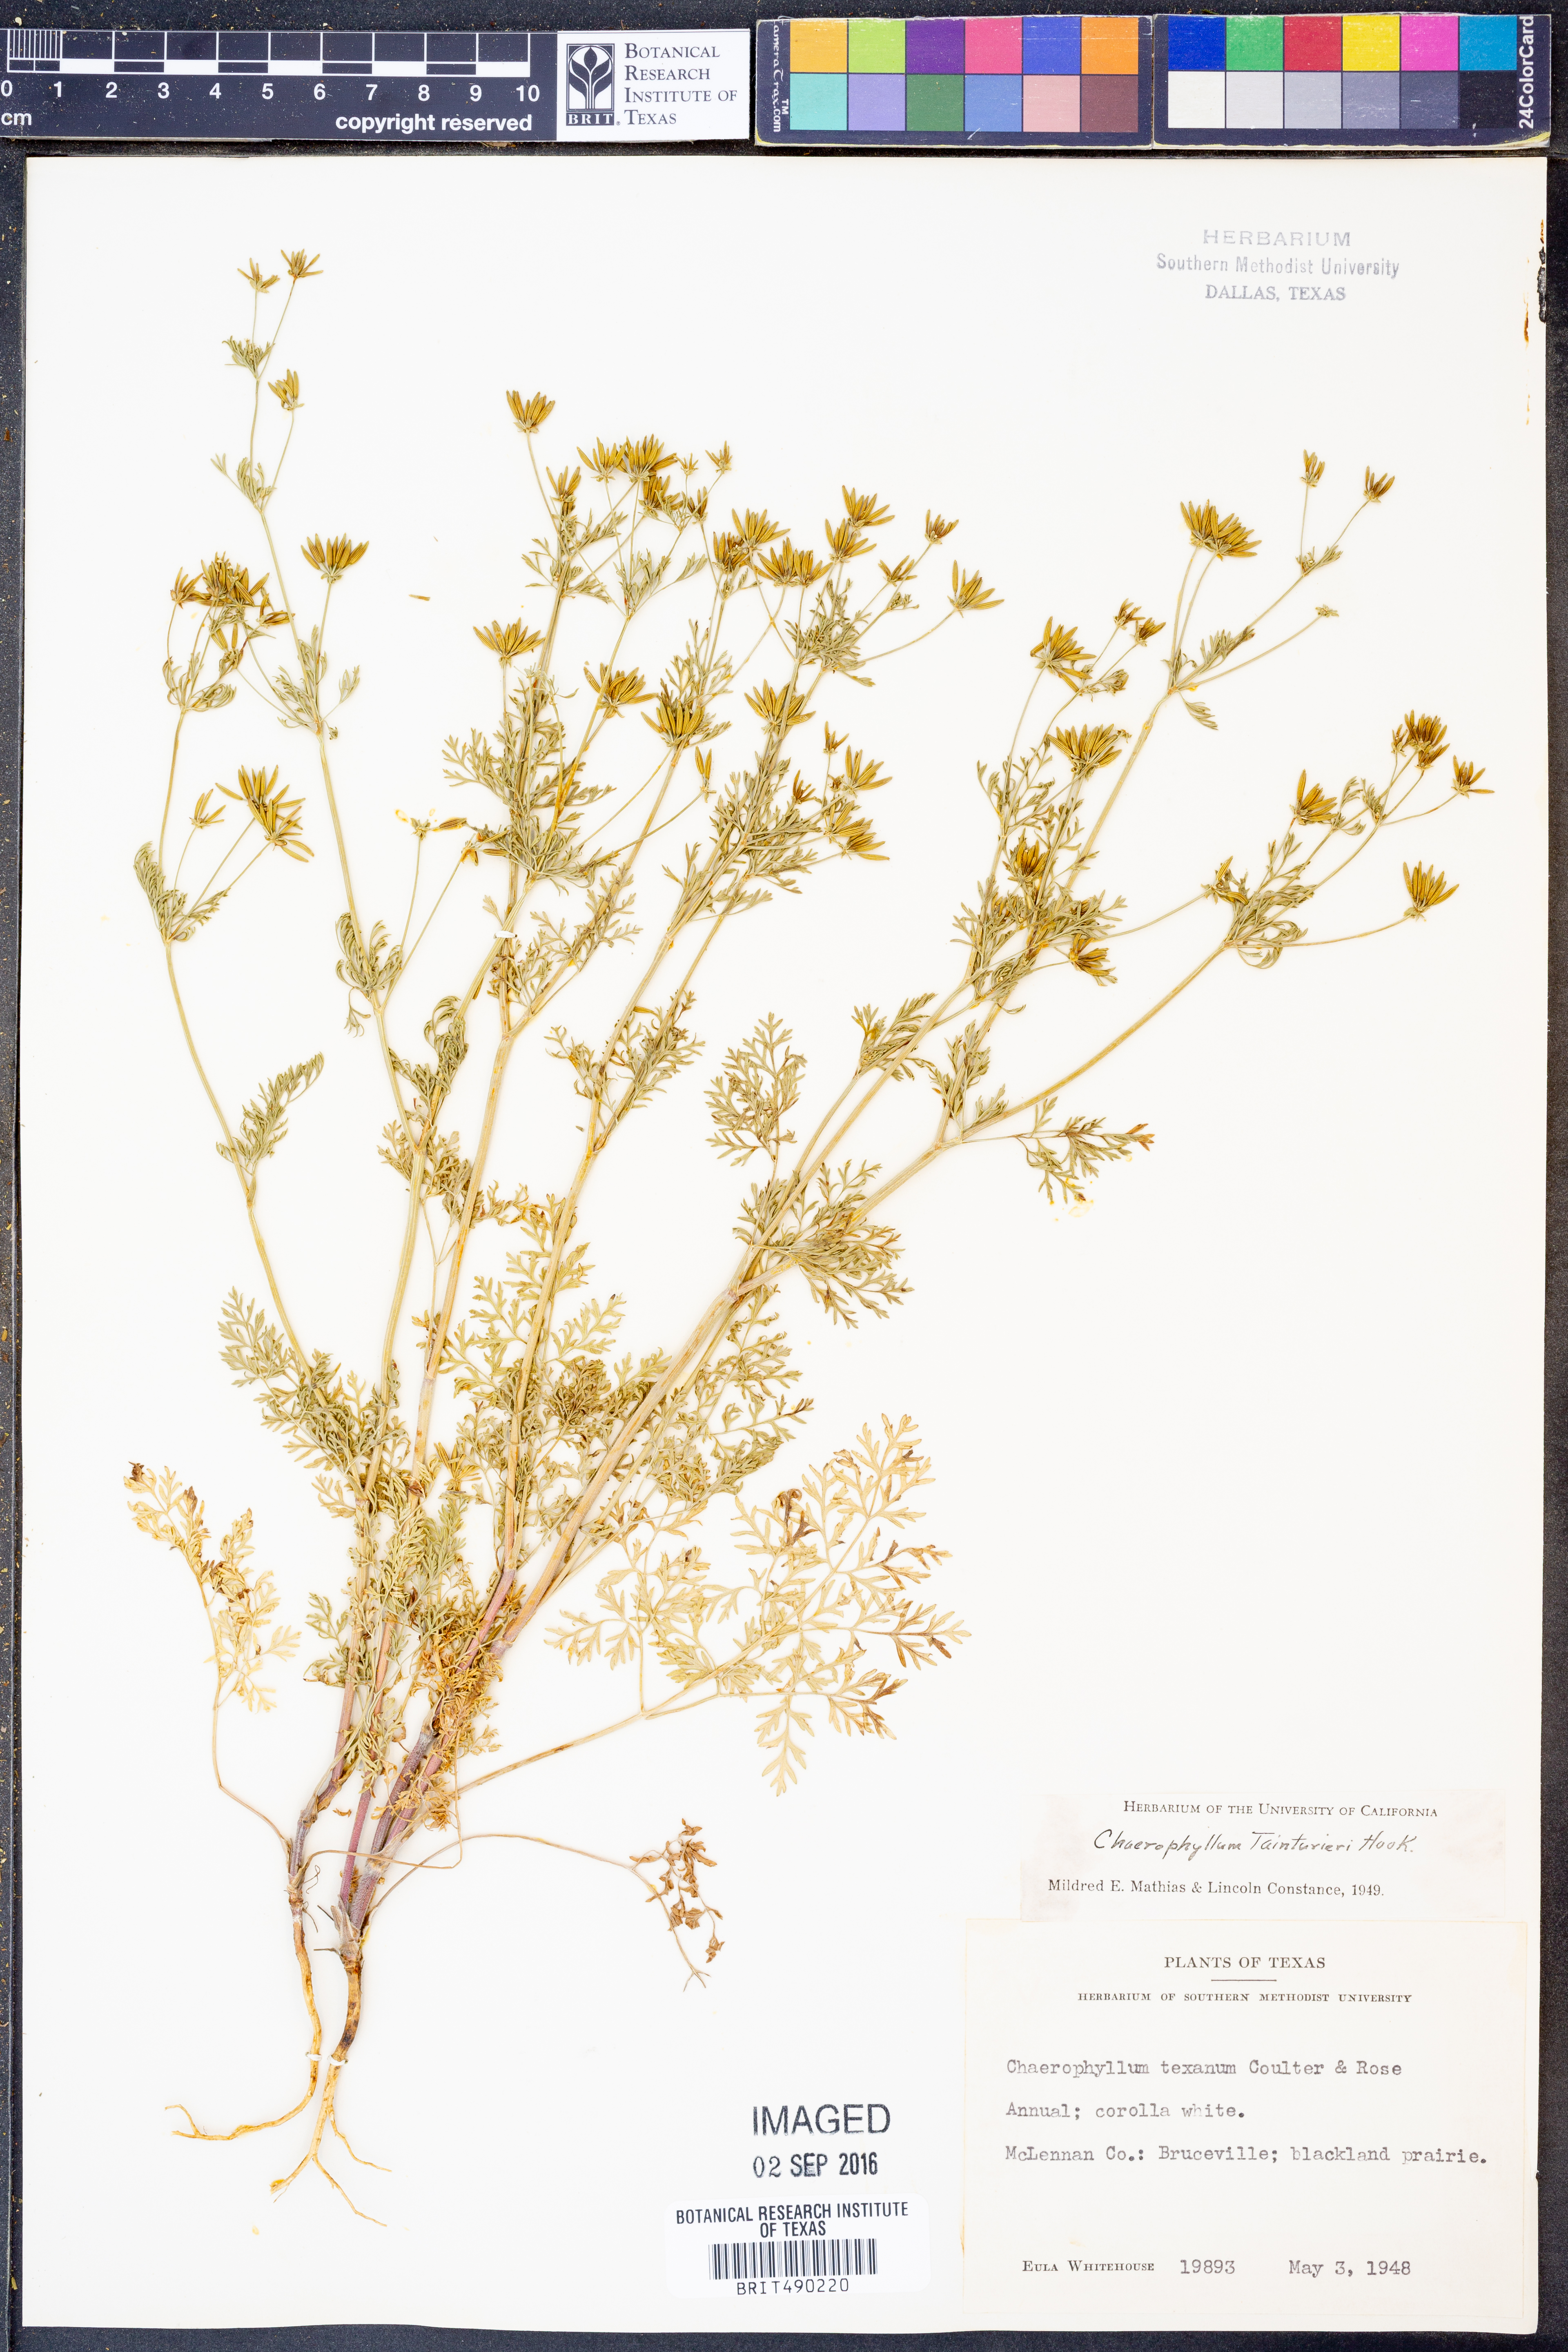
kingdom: Plantae
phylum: Tracheophyta
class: Magnoliopsida
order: Apiales
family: Apiaceae
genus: Chaerophyllum
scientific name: Chaerophyllum tainturieri
